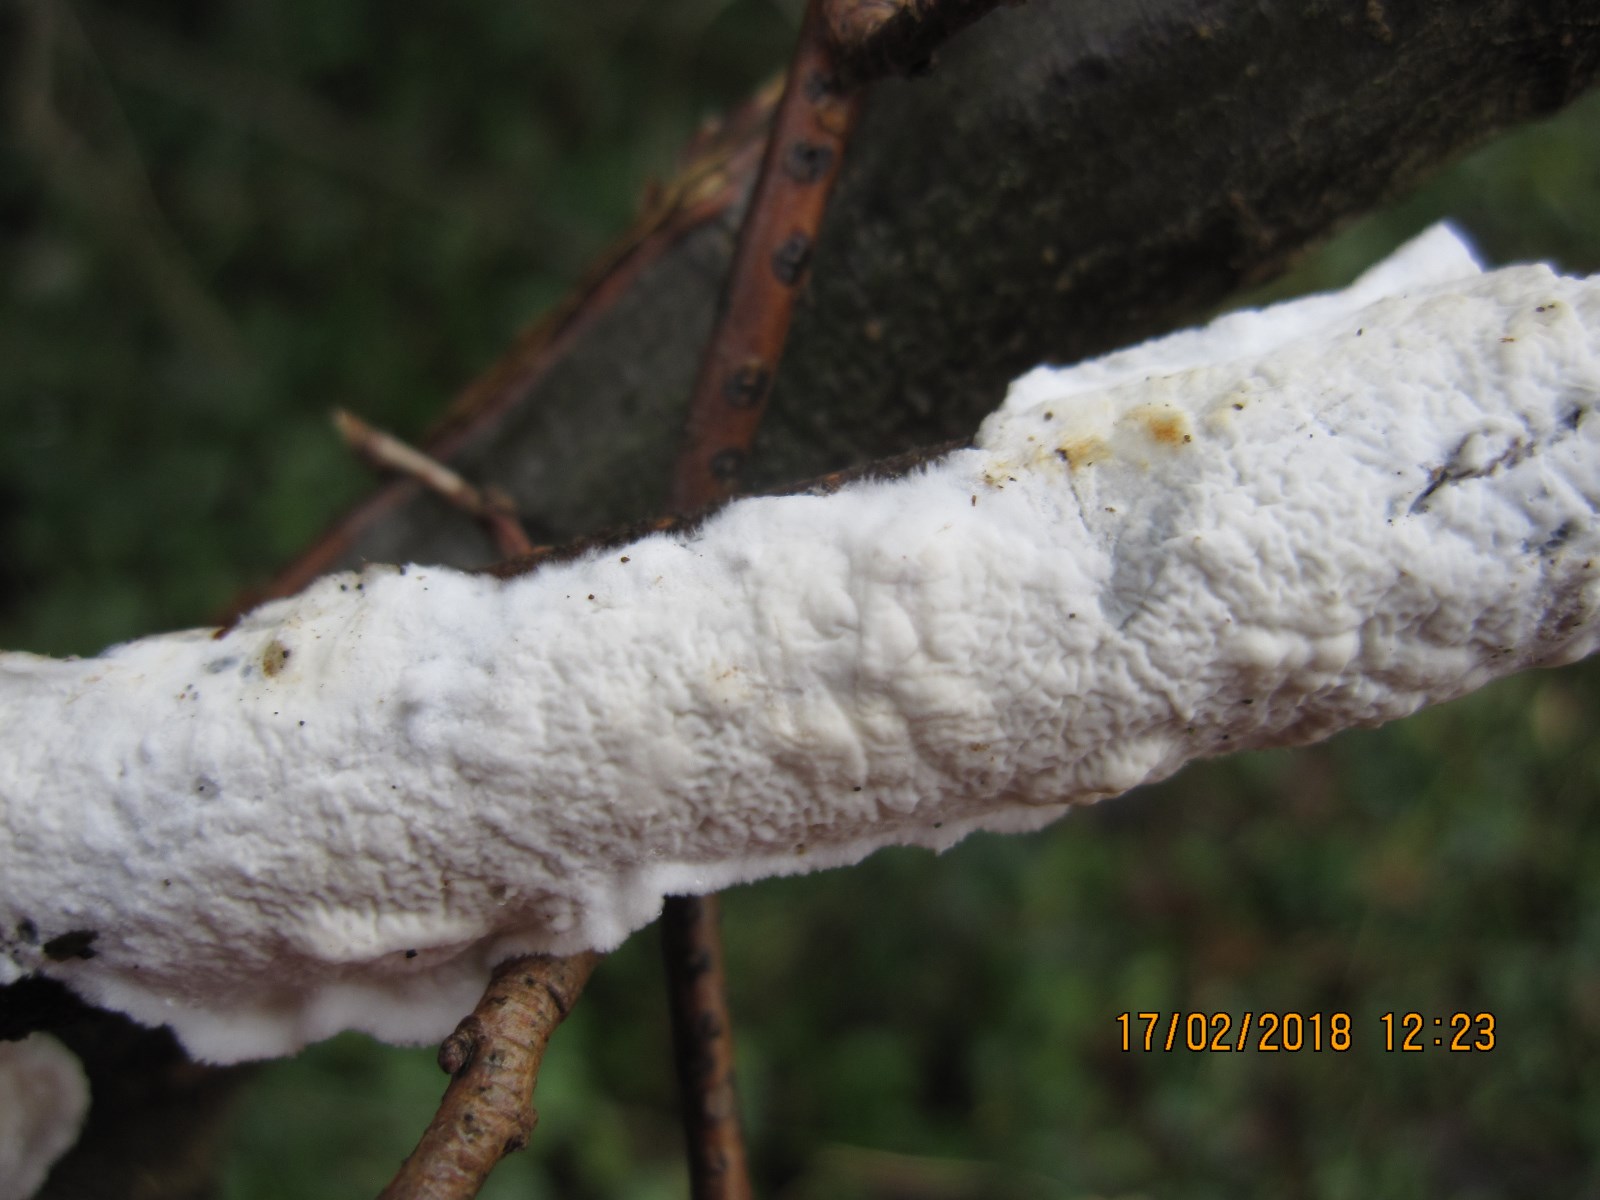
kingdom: Fungi
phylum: Basidiomycota
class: Agaricomycetes
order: Polyporales
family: Irpicaceae
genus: Byssomerulius
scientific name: Byssomerulius corium
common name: læder-åresvamp
